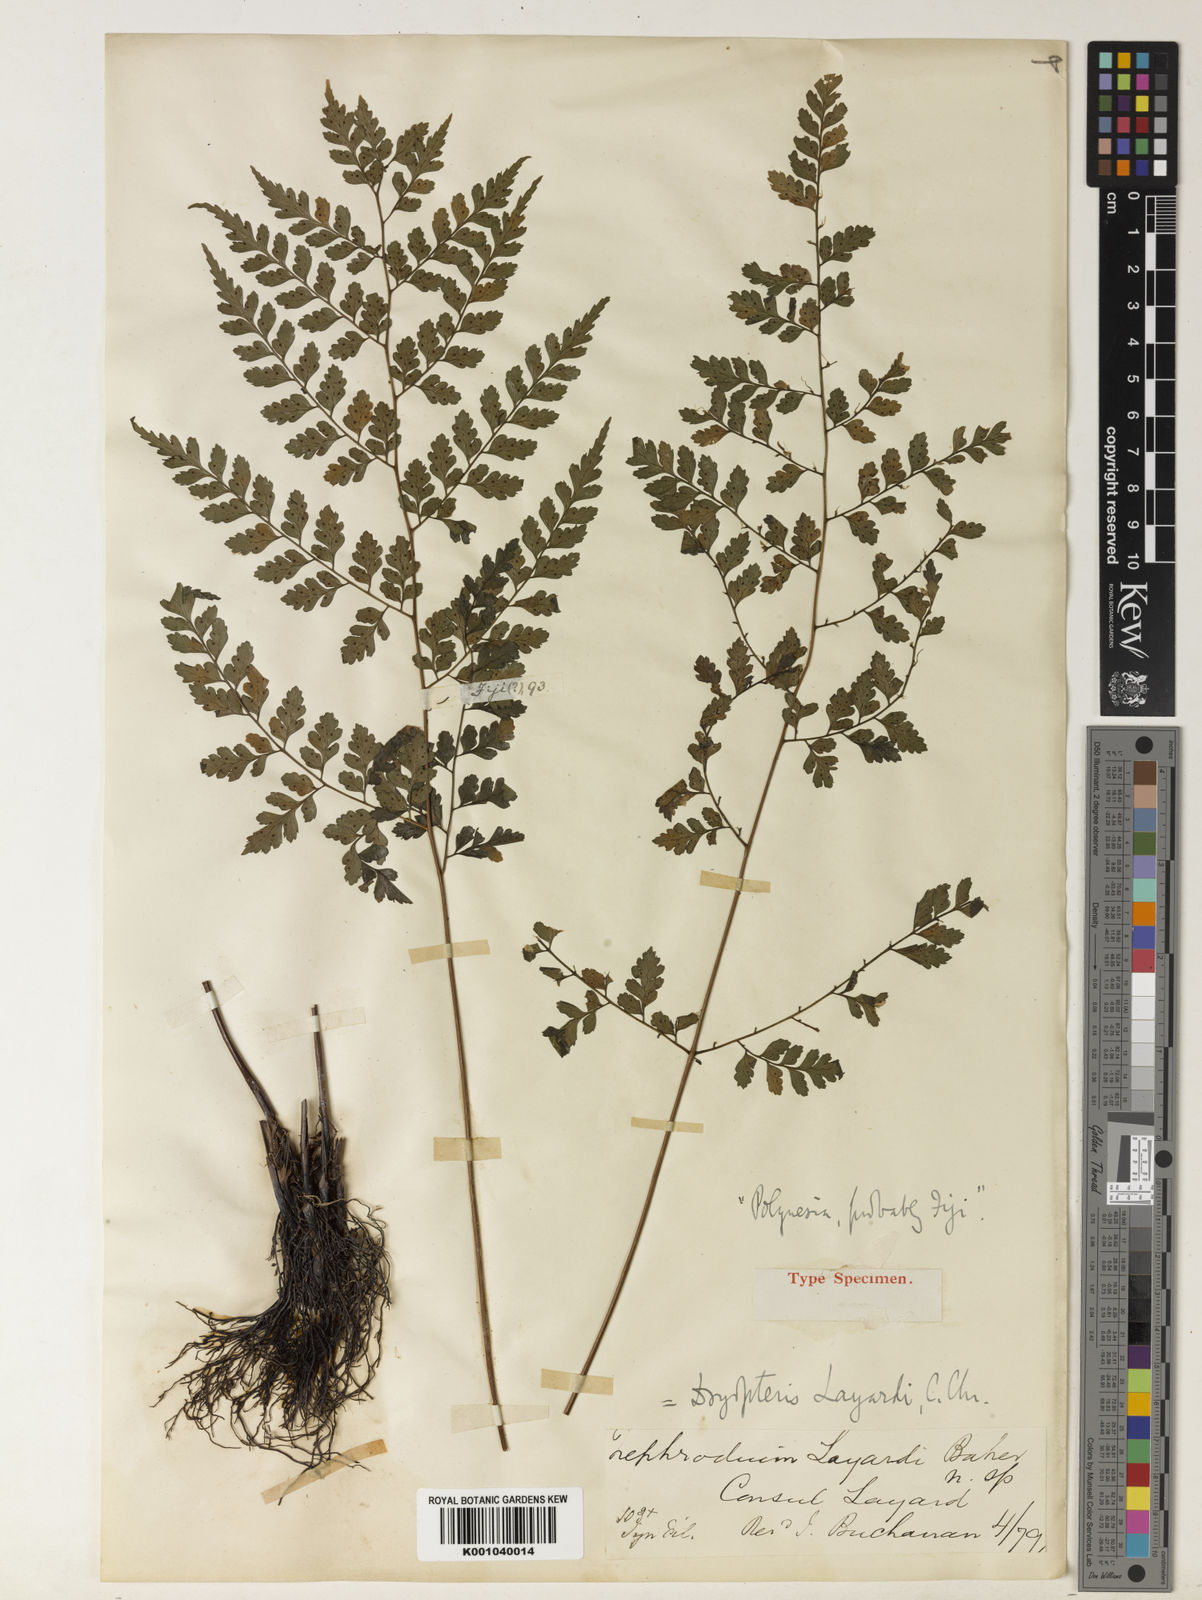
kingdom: Plantae
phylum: Tracheophyta
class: Polypodiopsida
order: Polypodiales
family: Dryopteridaceae
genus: Arachniodes
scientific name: Arachniodes
